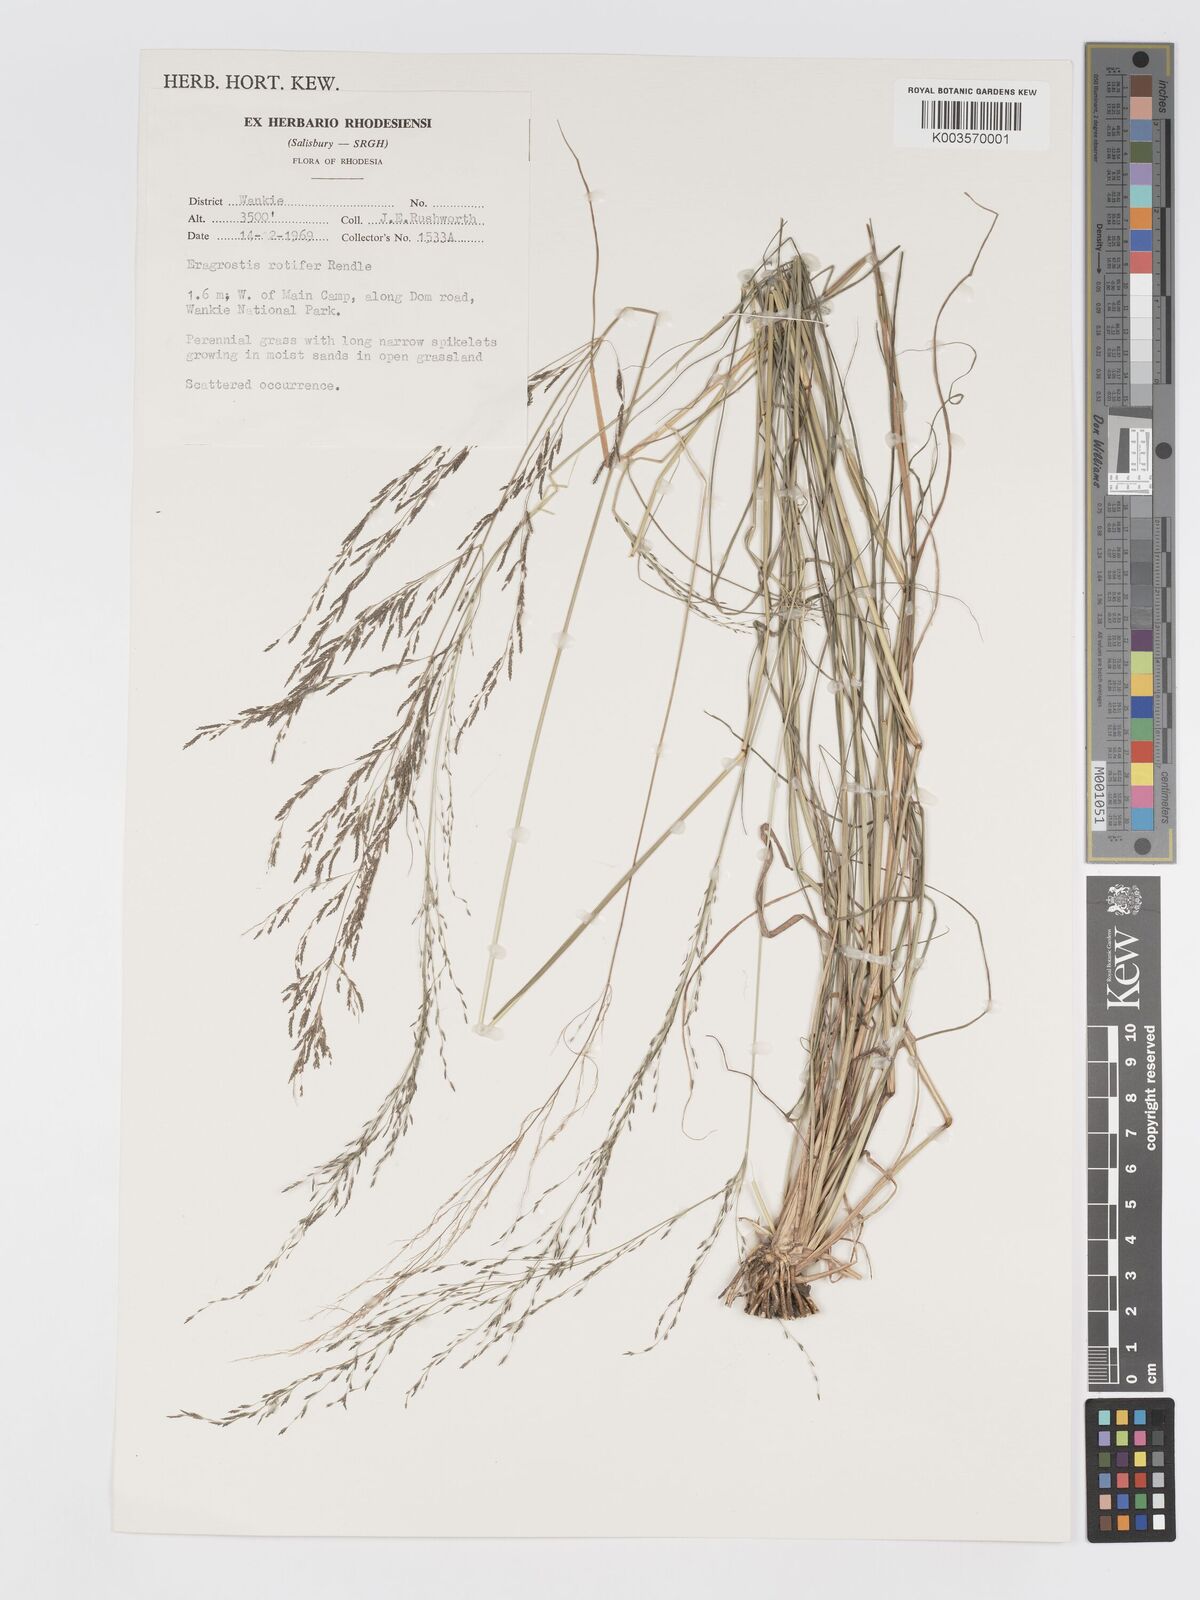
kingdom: Plantae
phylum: Tracheophyta
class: Liliopsida
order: Poales
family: Poaceae
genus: Eragrostis
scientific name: Eragrostis rotifer
